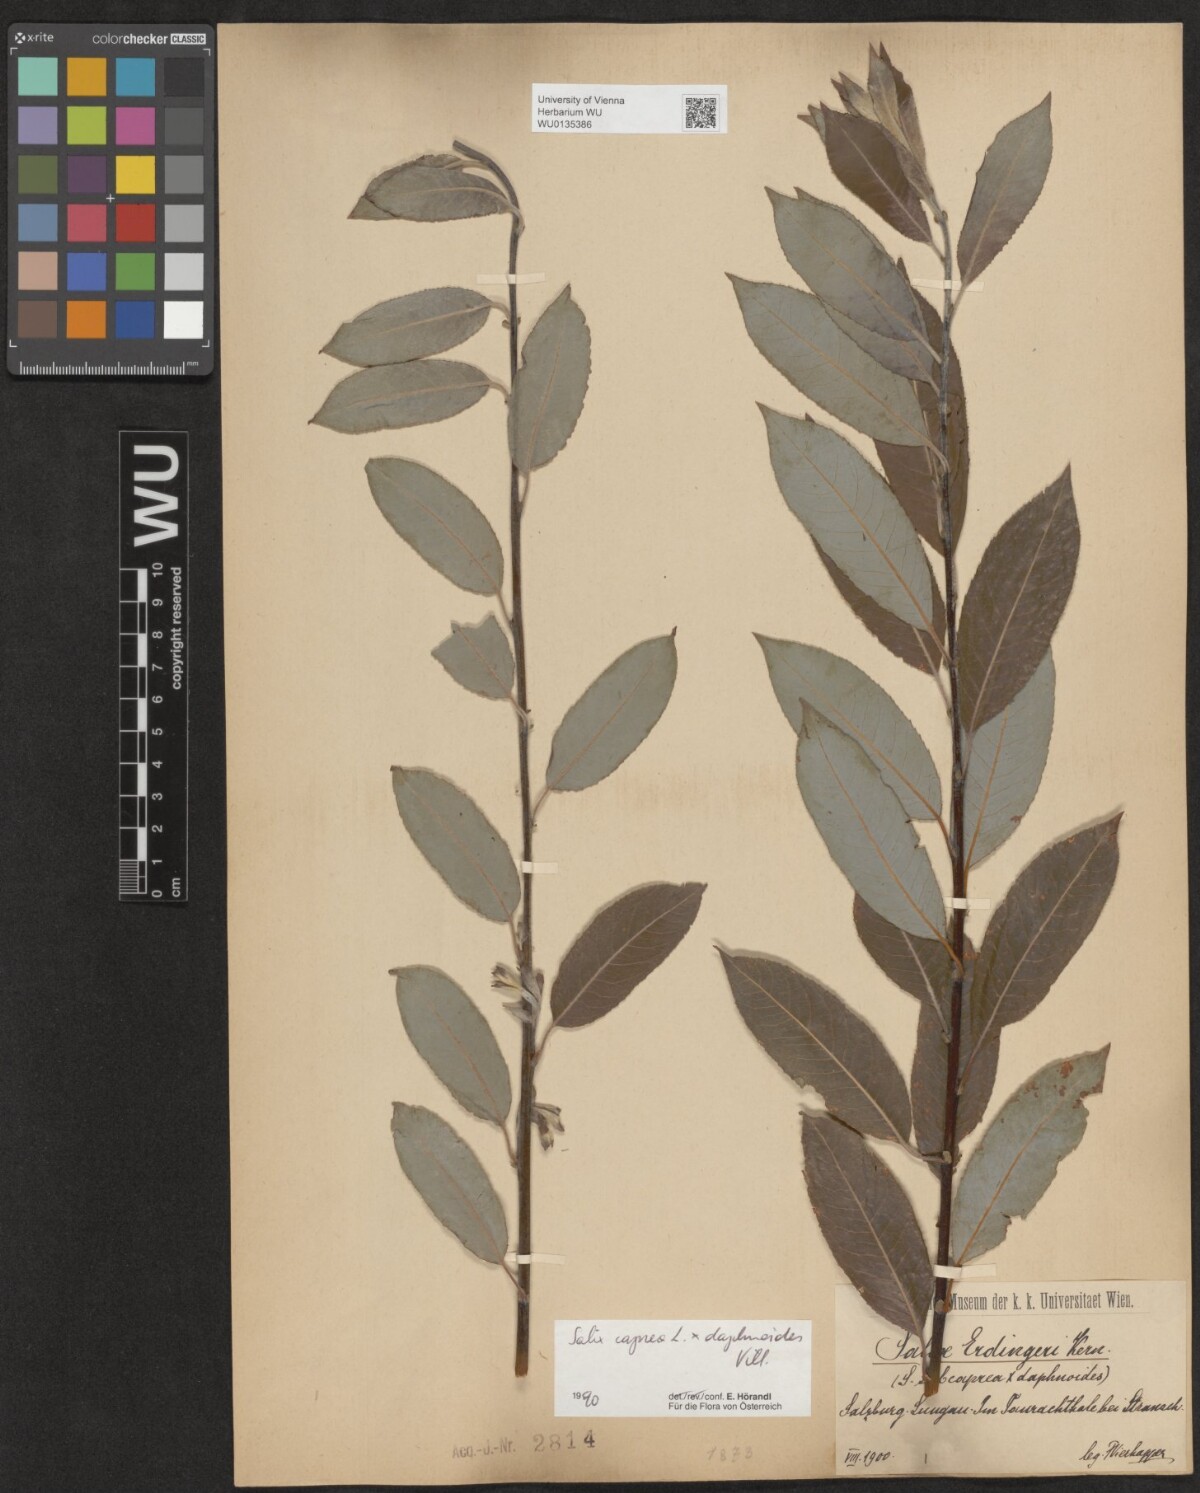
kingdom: Plantae
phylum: Tracheophyta
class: Magnoliopsida
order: Malpighiales
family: Salicaceae
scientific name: Salicaceae
